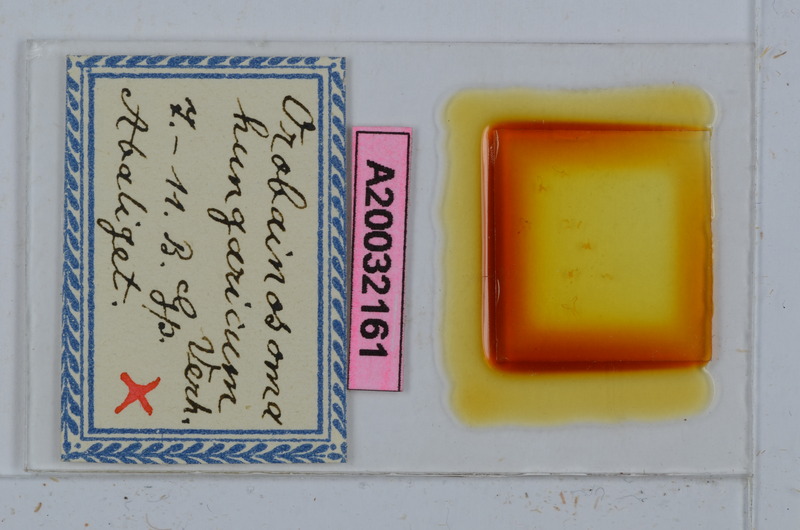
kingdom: Animalia
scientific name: Animalia
